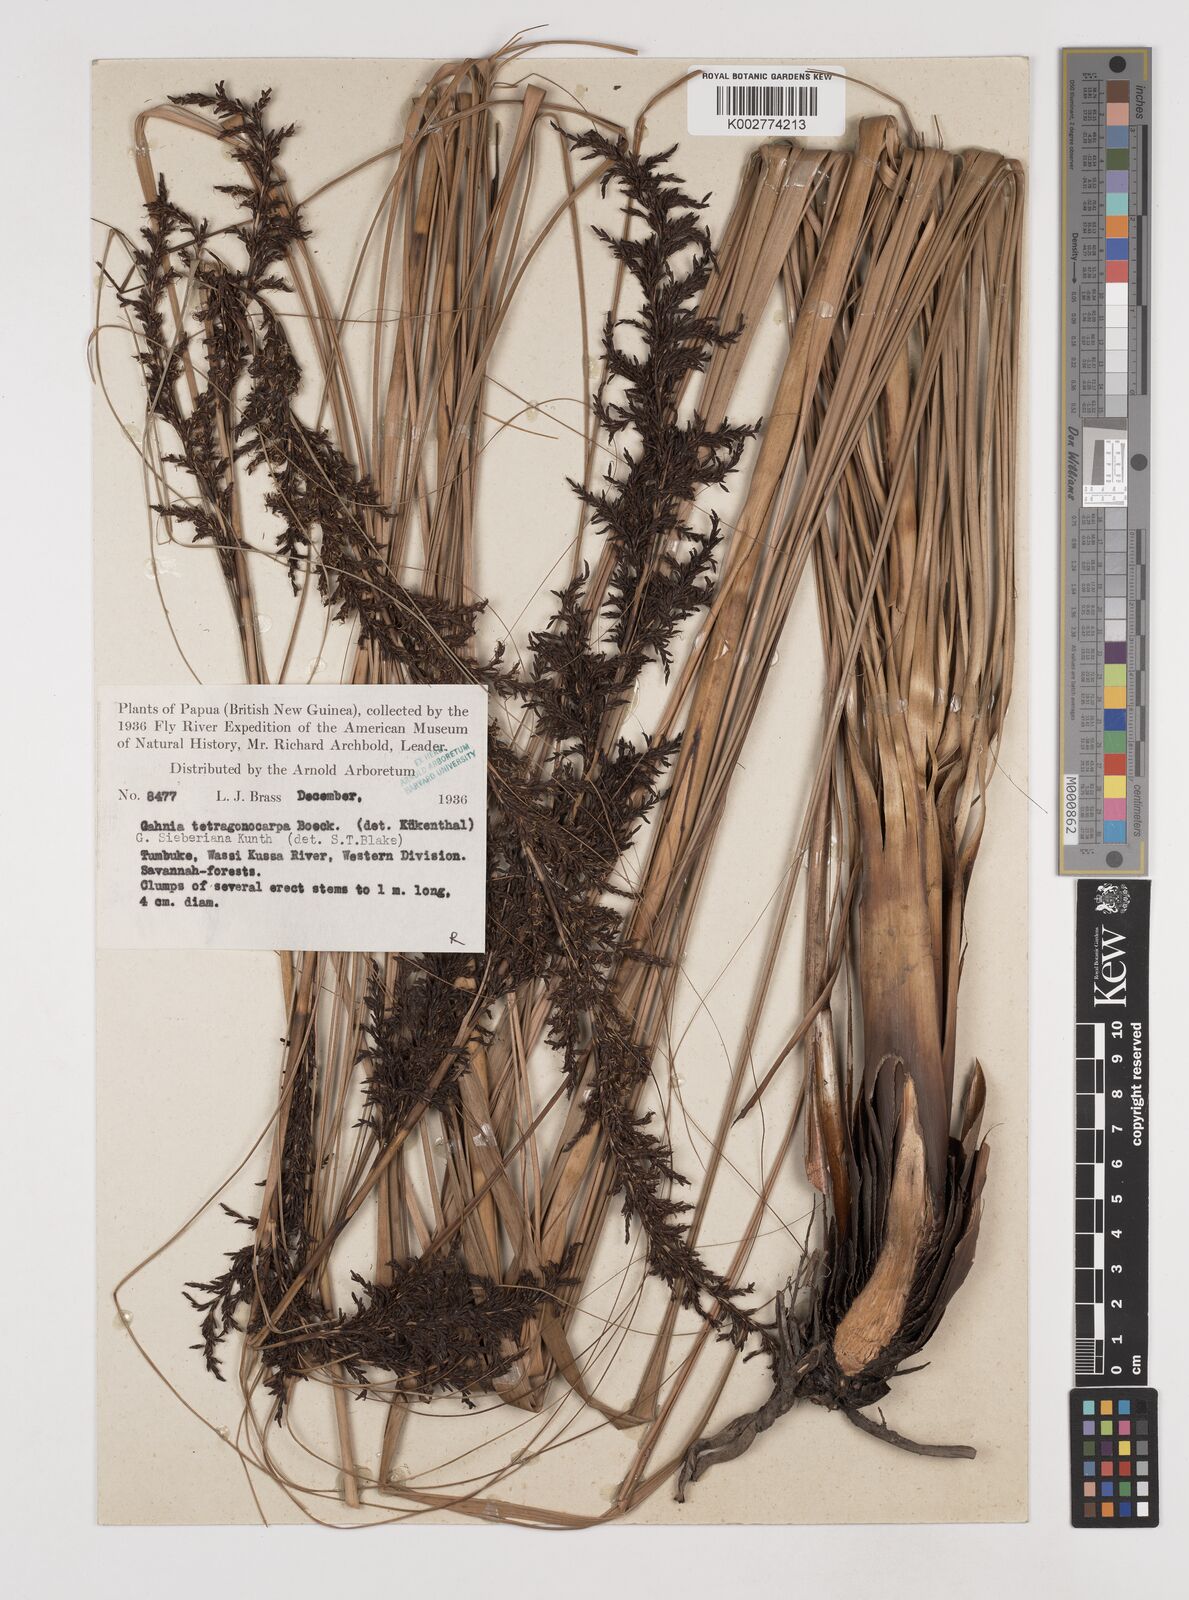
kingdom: Plantae
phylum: Tracheophyta
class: Liliopsida
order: Poales
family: Cyperaceae
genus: Gahnia
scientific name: Gahnia sieberiana
